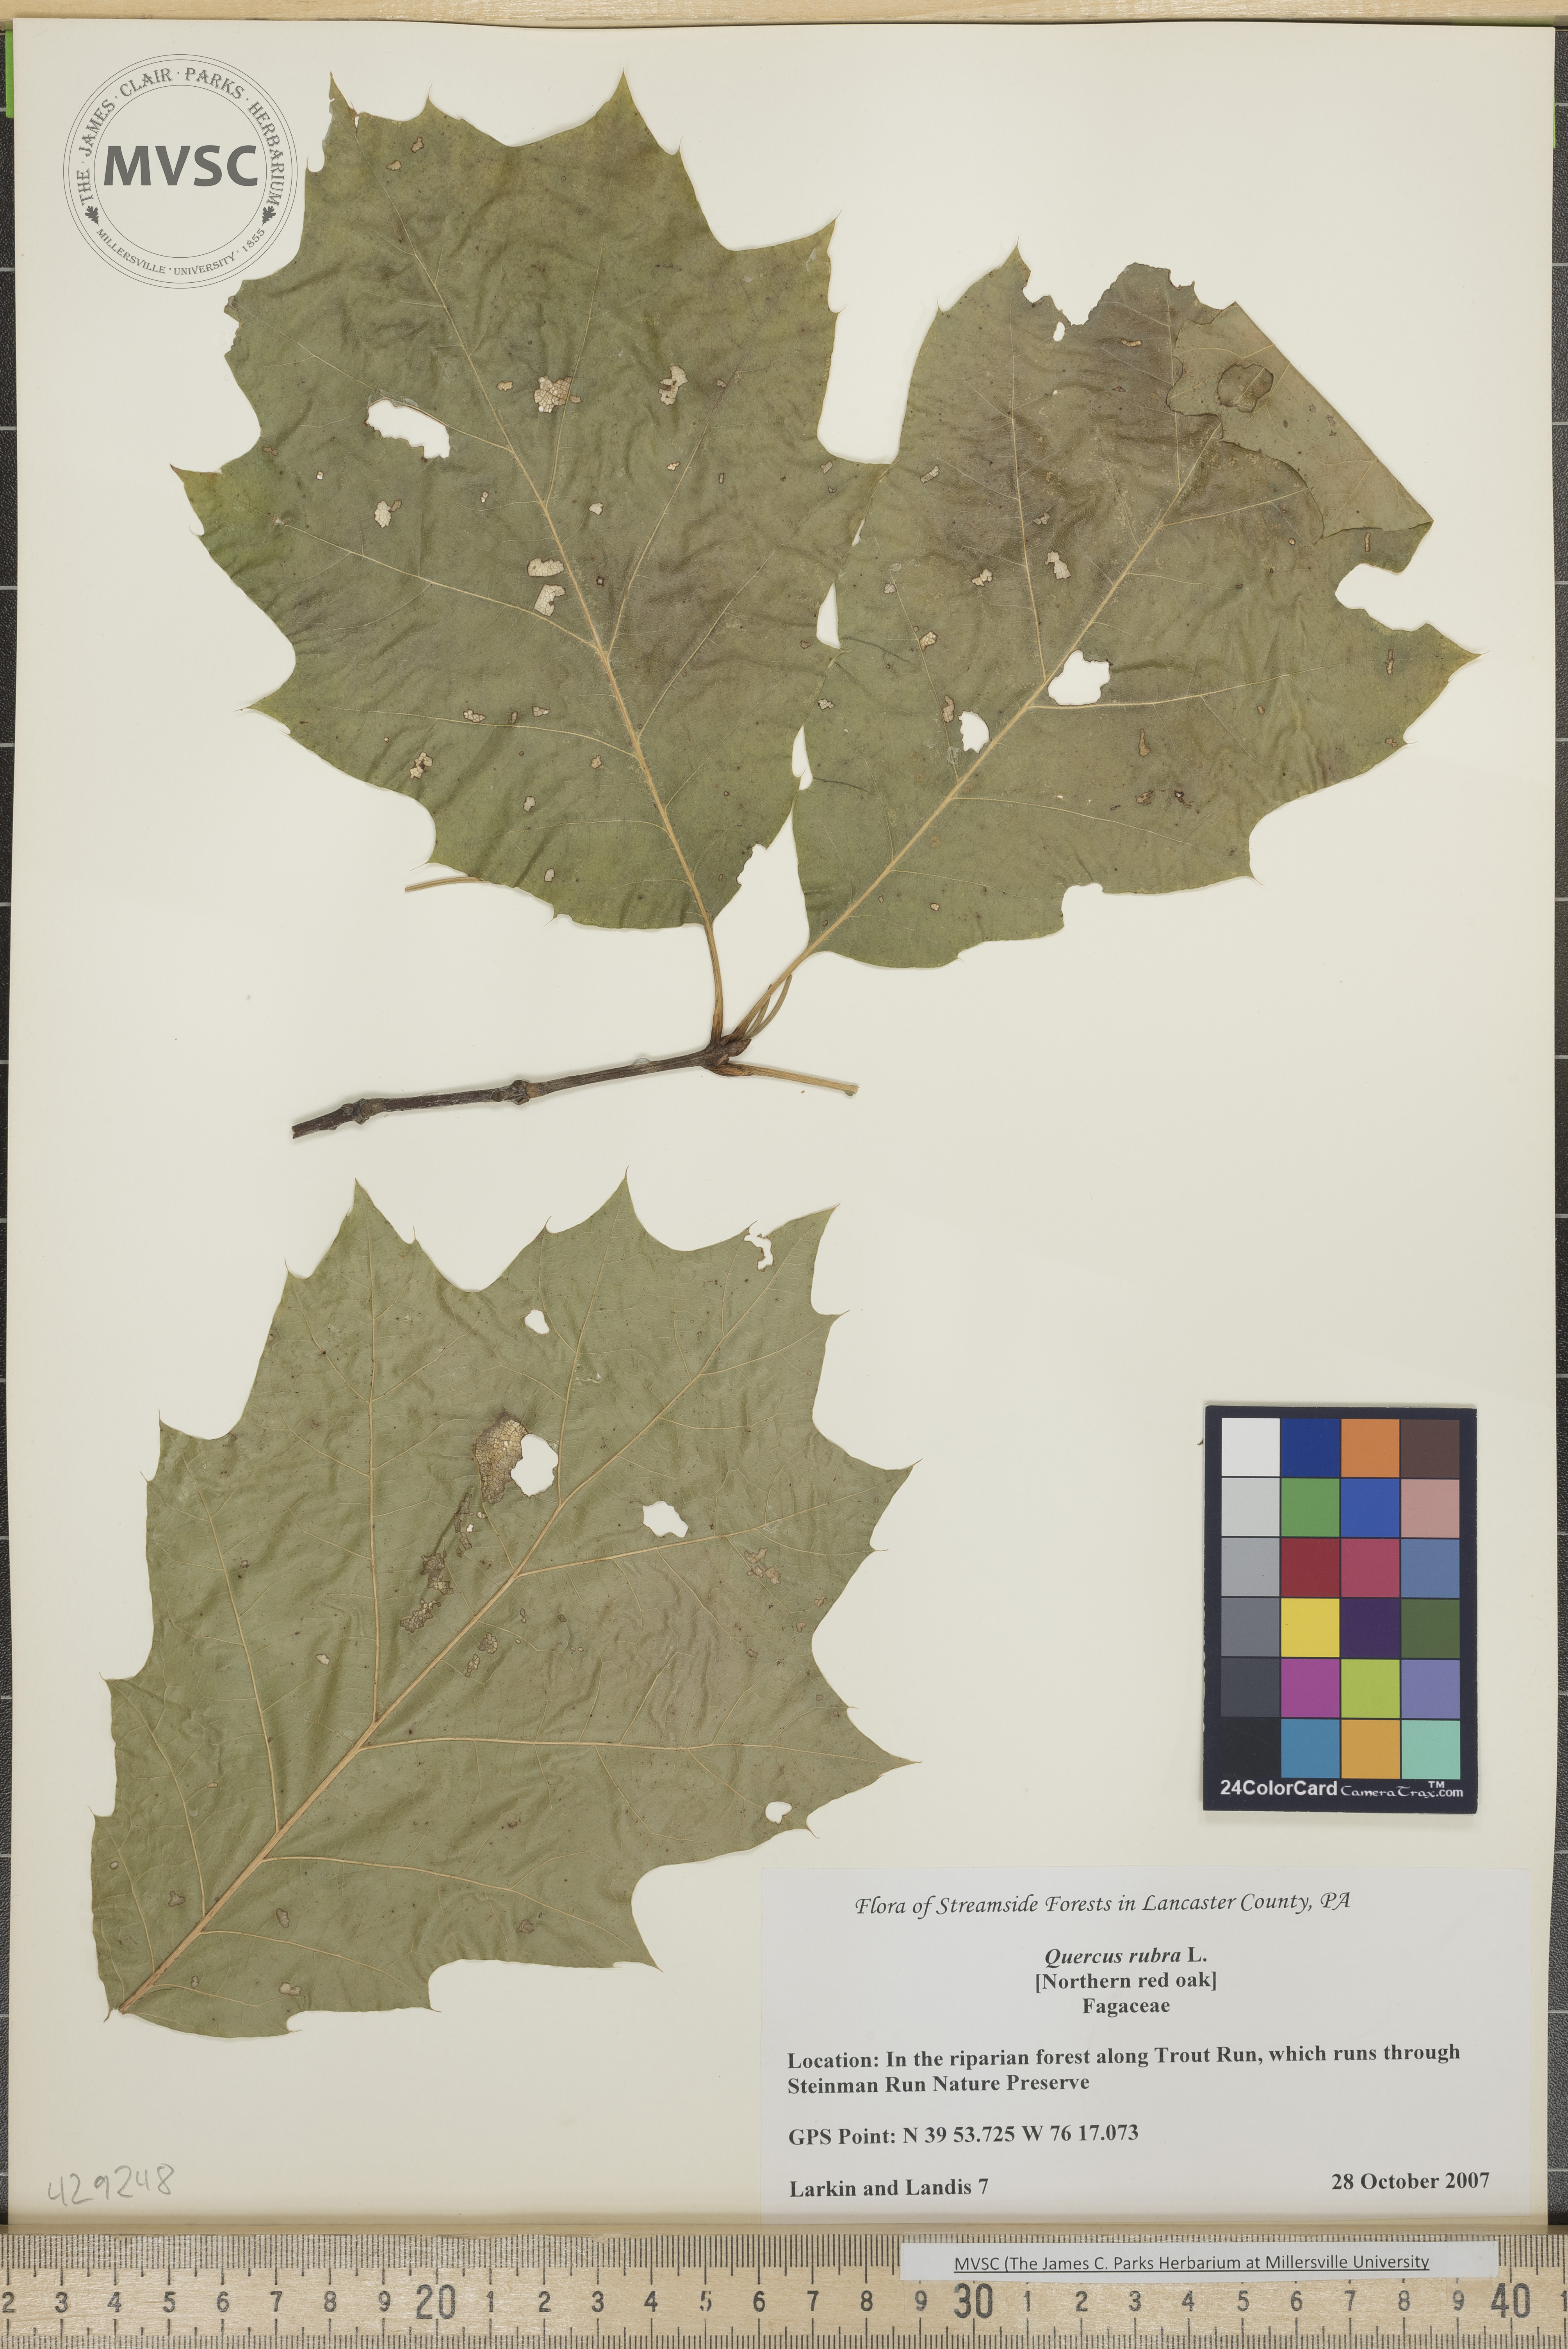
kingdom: Plantae
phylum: Tracheophyta
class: Magnoliopsida
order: Fagales
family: Fagaceae
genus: Quercus
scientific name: Quercus rubra
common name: Red oak
